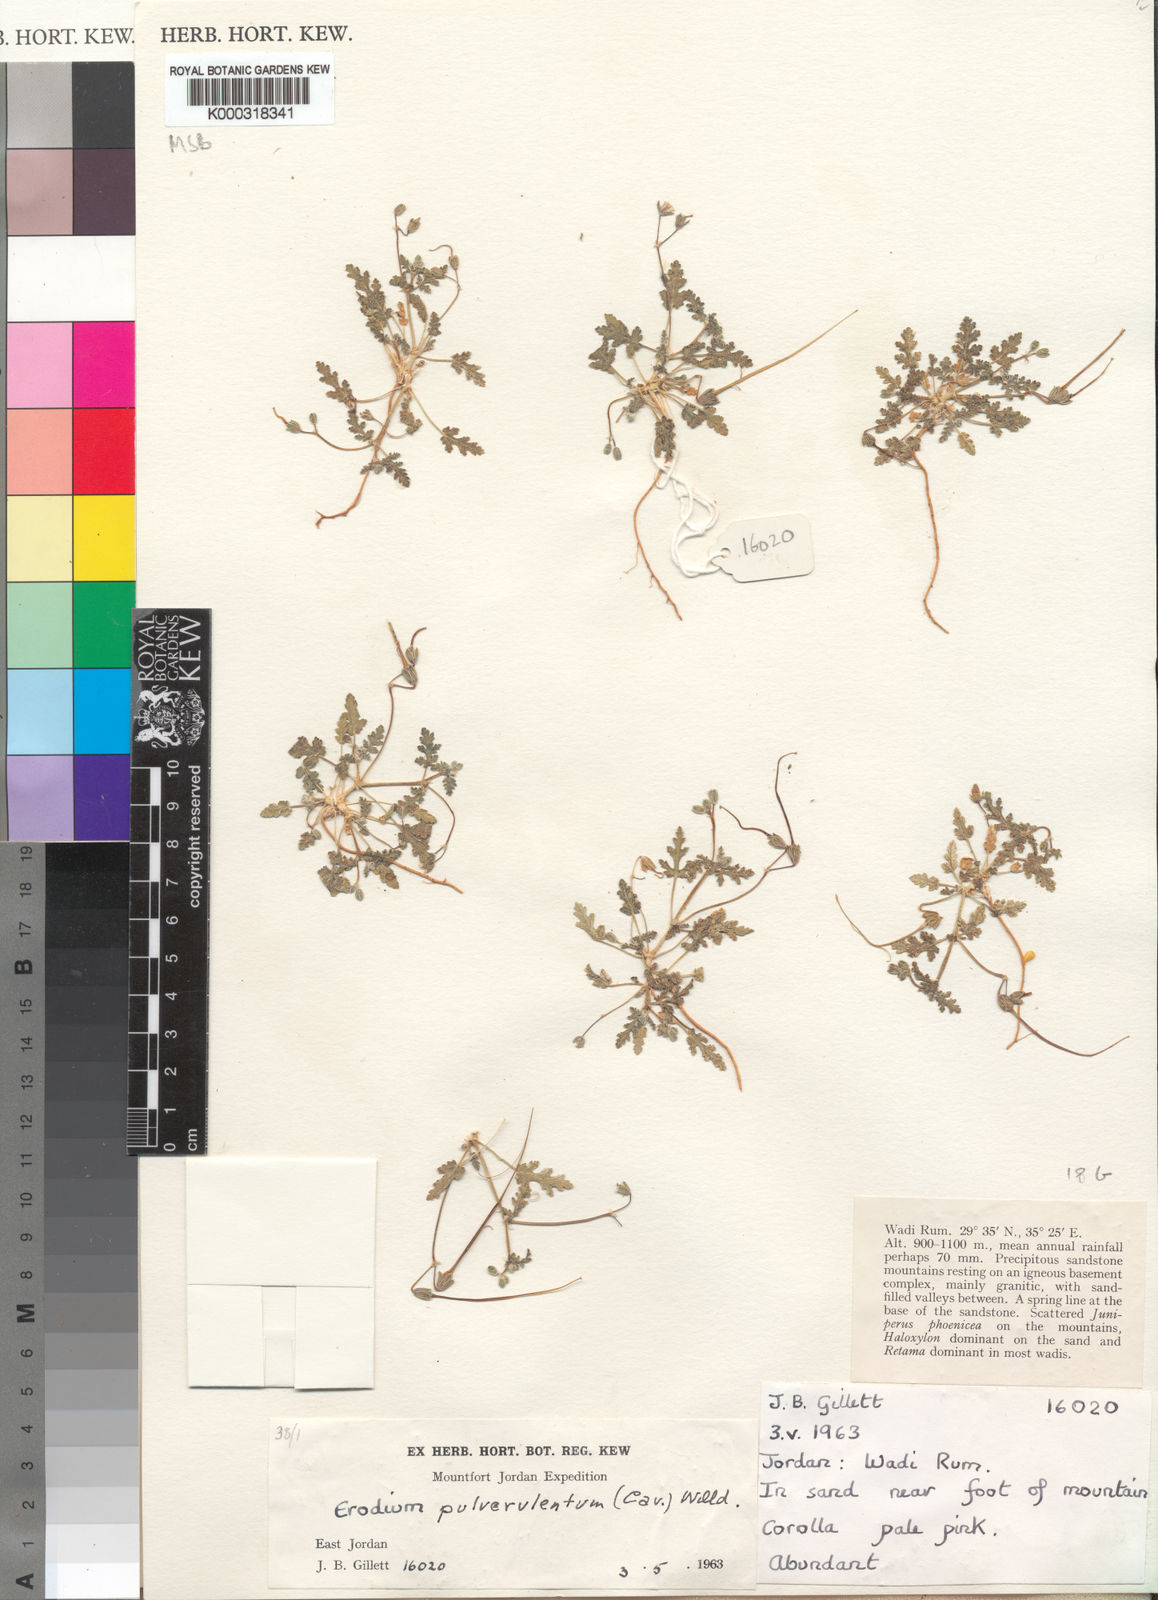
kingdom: Plantae
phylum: Tracheophyta
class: Magnoliopsida
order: Geraniales
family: Geraniaceae
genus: Erodium
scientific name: Erodium laciniatum
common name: Cutleaf stork's bill
